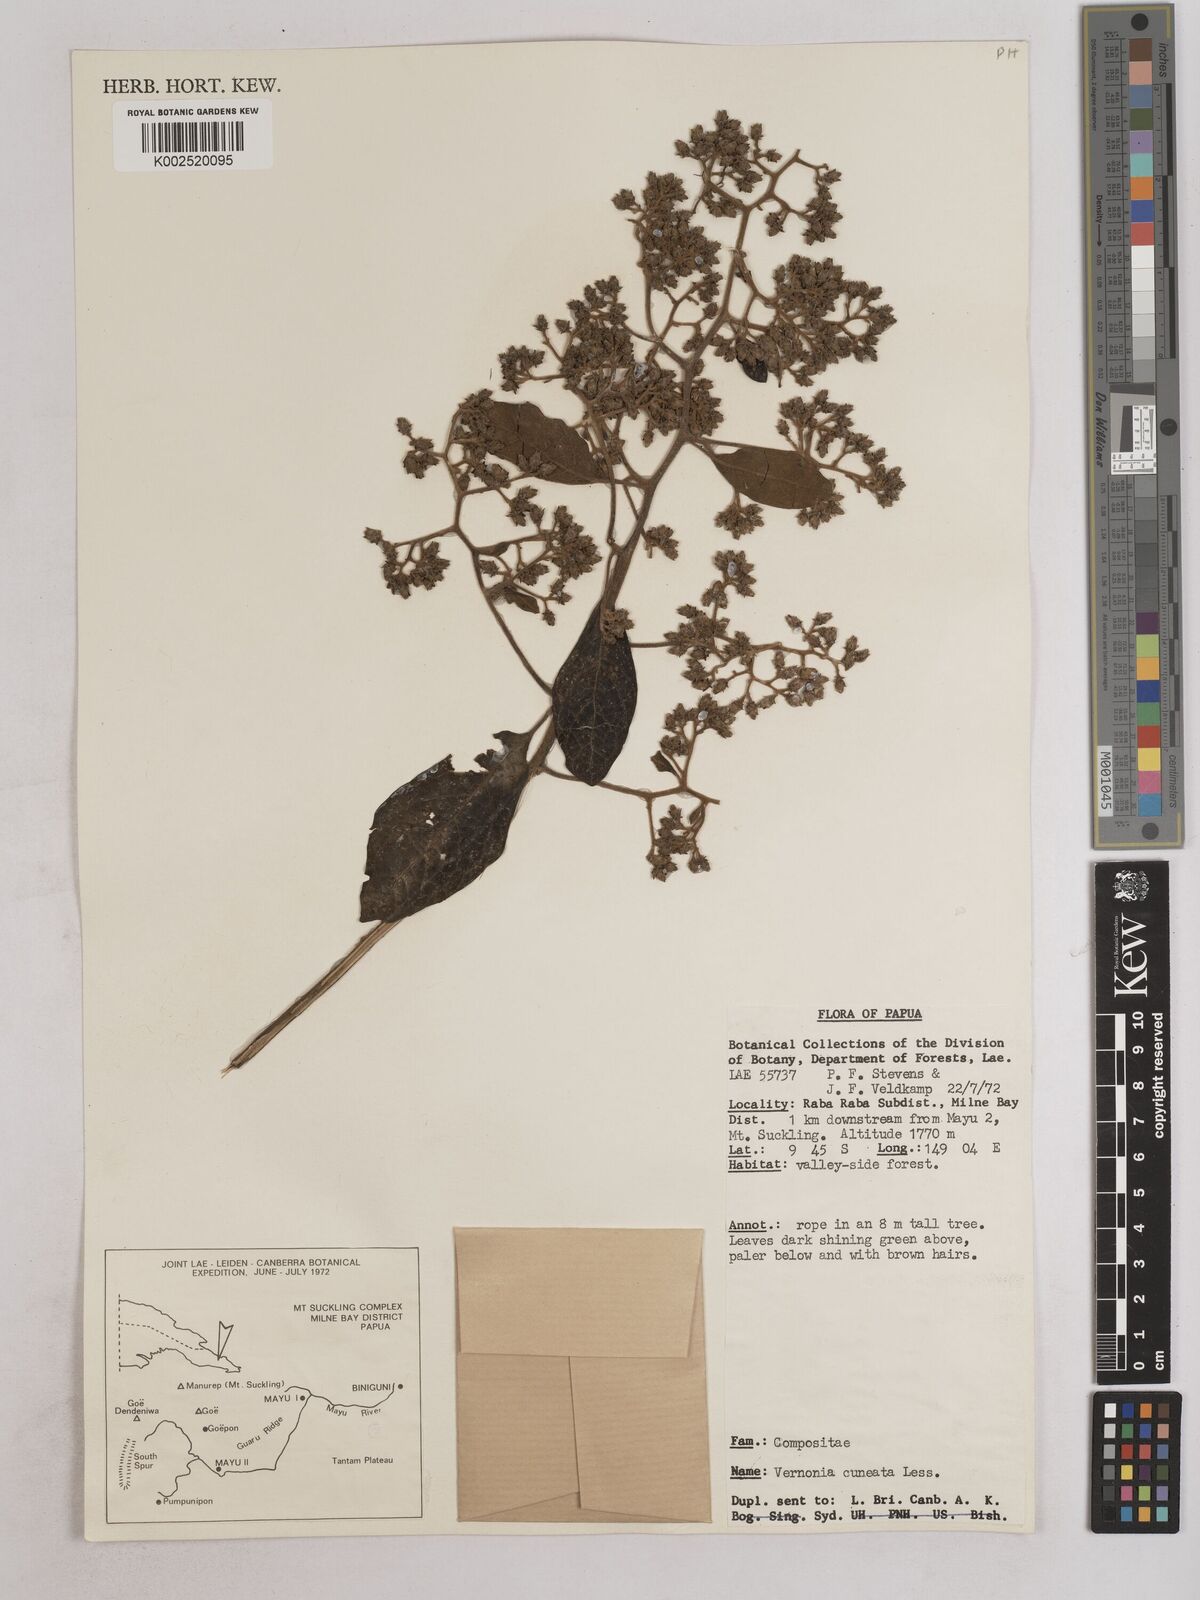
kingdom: Plantae
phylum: Tracheophyta
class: Magnoliopsida
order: Asterales
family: Asteraceae
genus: Decaneuropsis
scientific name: Decaneuropsis obovata
